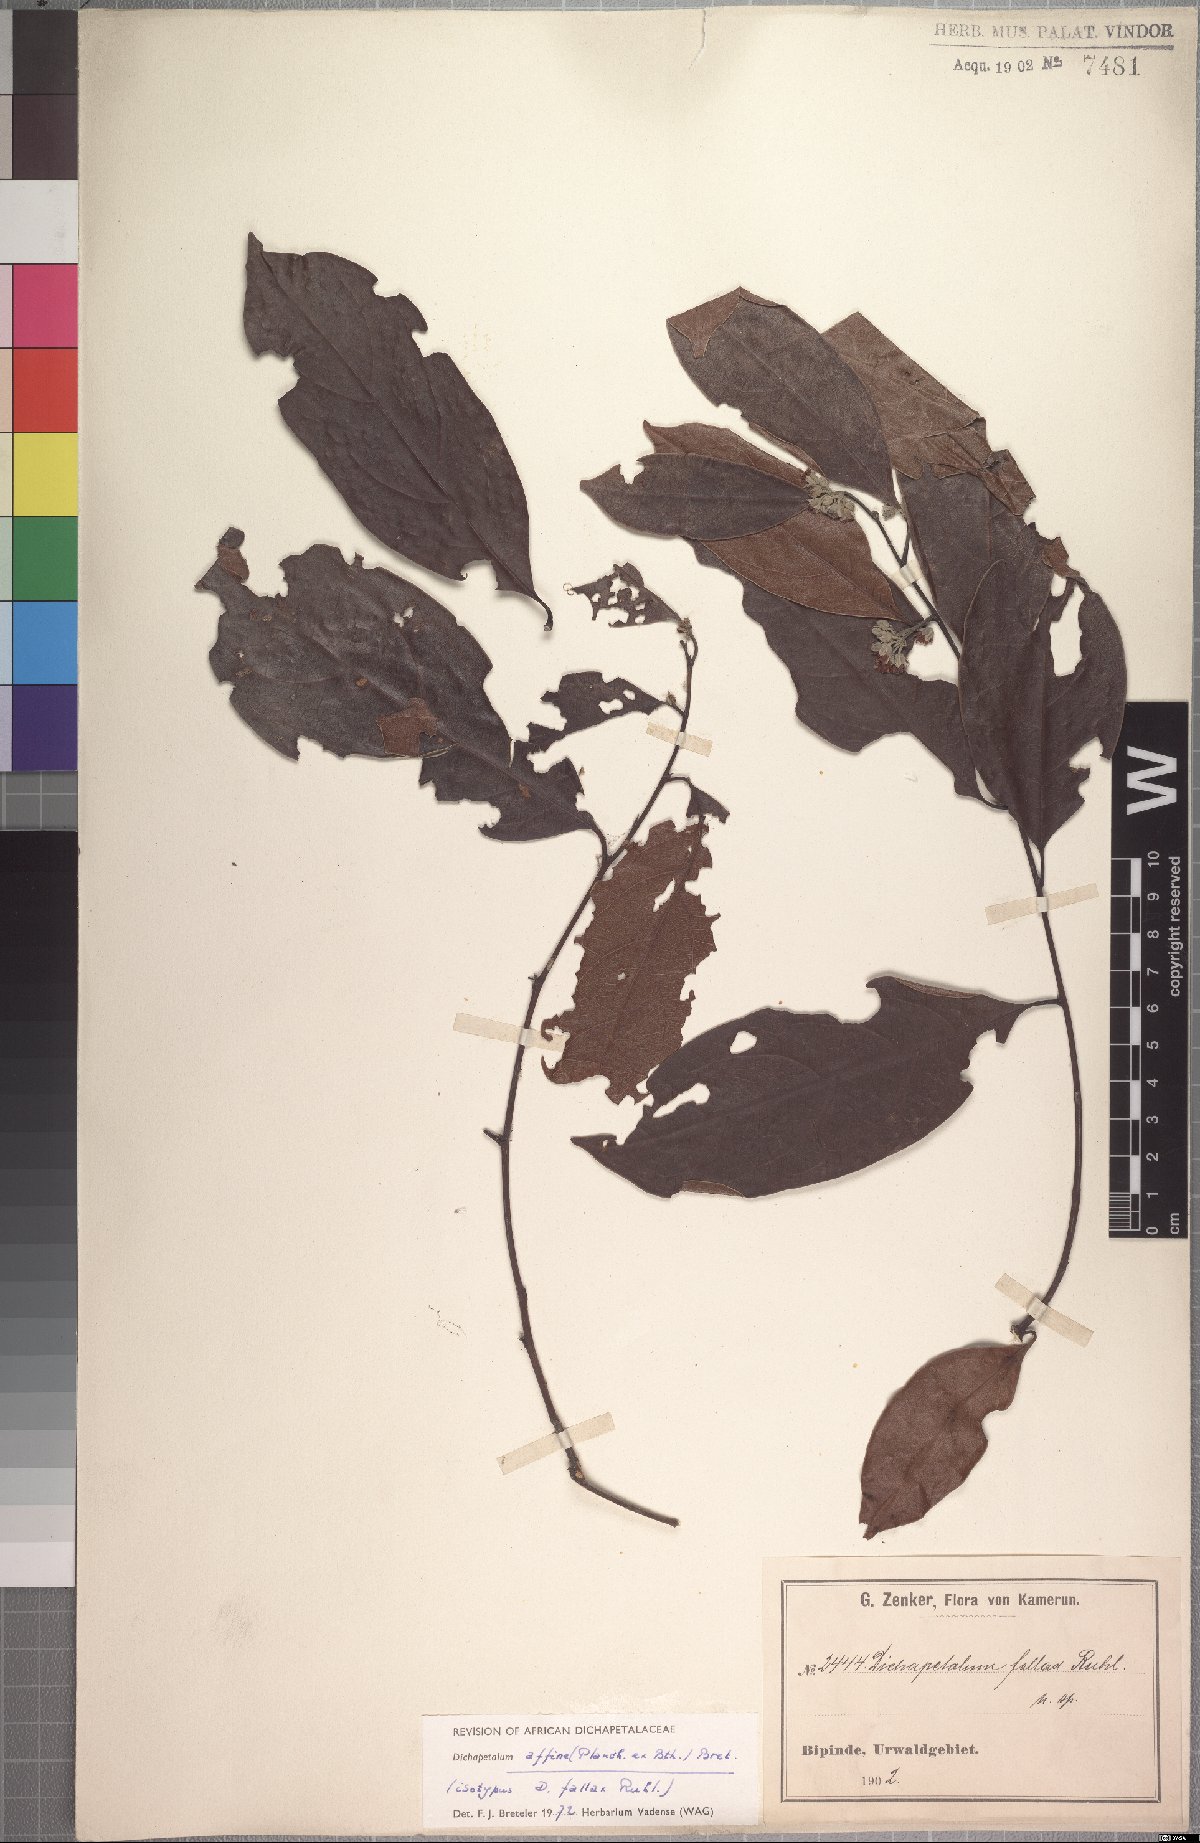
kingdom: Plantae
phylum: Tracheophyta
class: Magnoliopsida
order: Malpighiales
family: Dichapetalaceae
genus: Dichapetalum
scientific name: Dichapetalum affine
